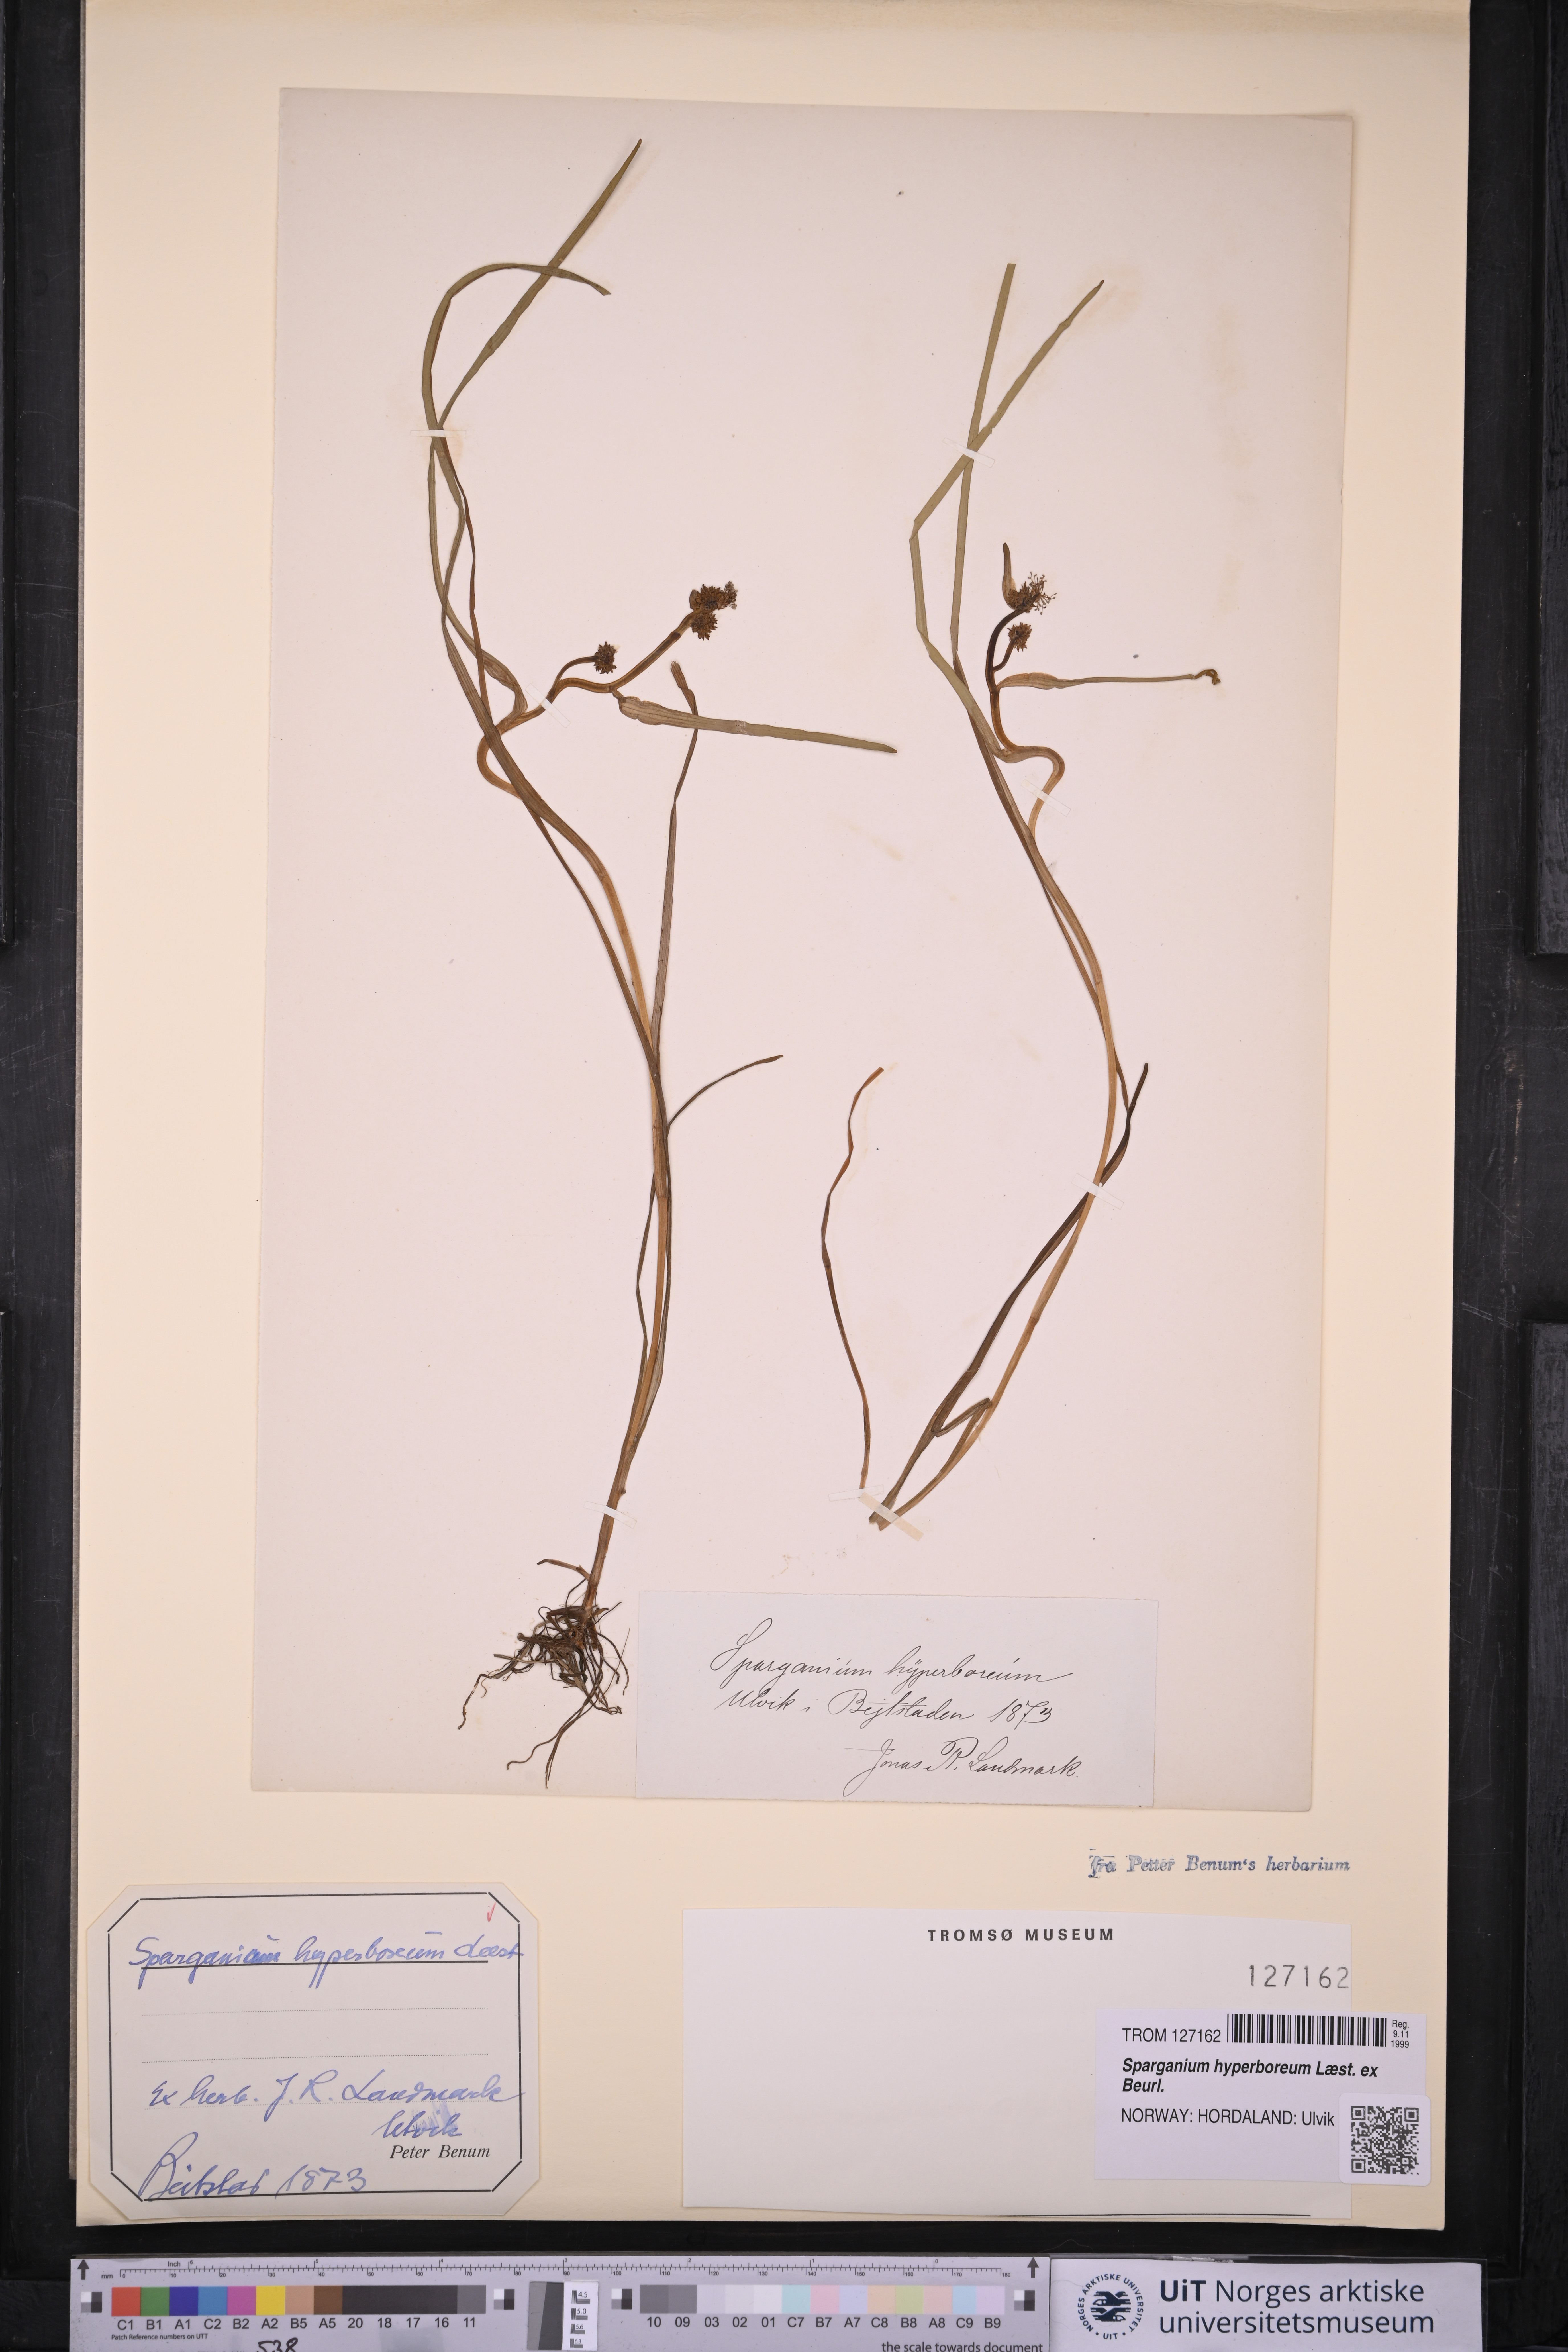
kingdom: Plantae
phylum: Tracheophyta
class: Liliopsida
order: Poales
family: Typhaceae
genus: Sparganium
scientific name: Sparganium hyperboreum
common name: Arctic burreed
